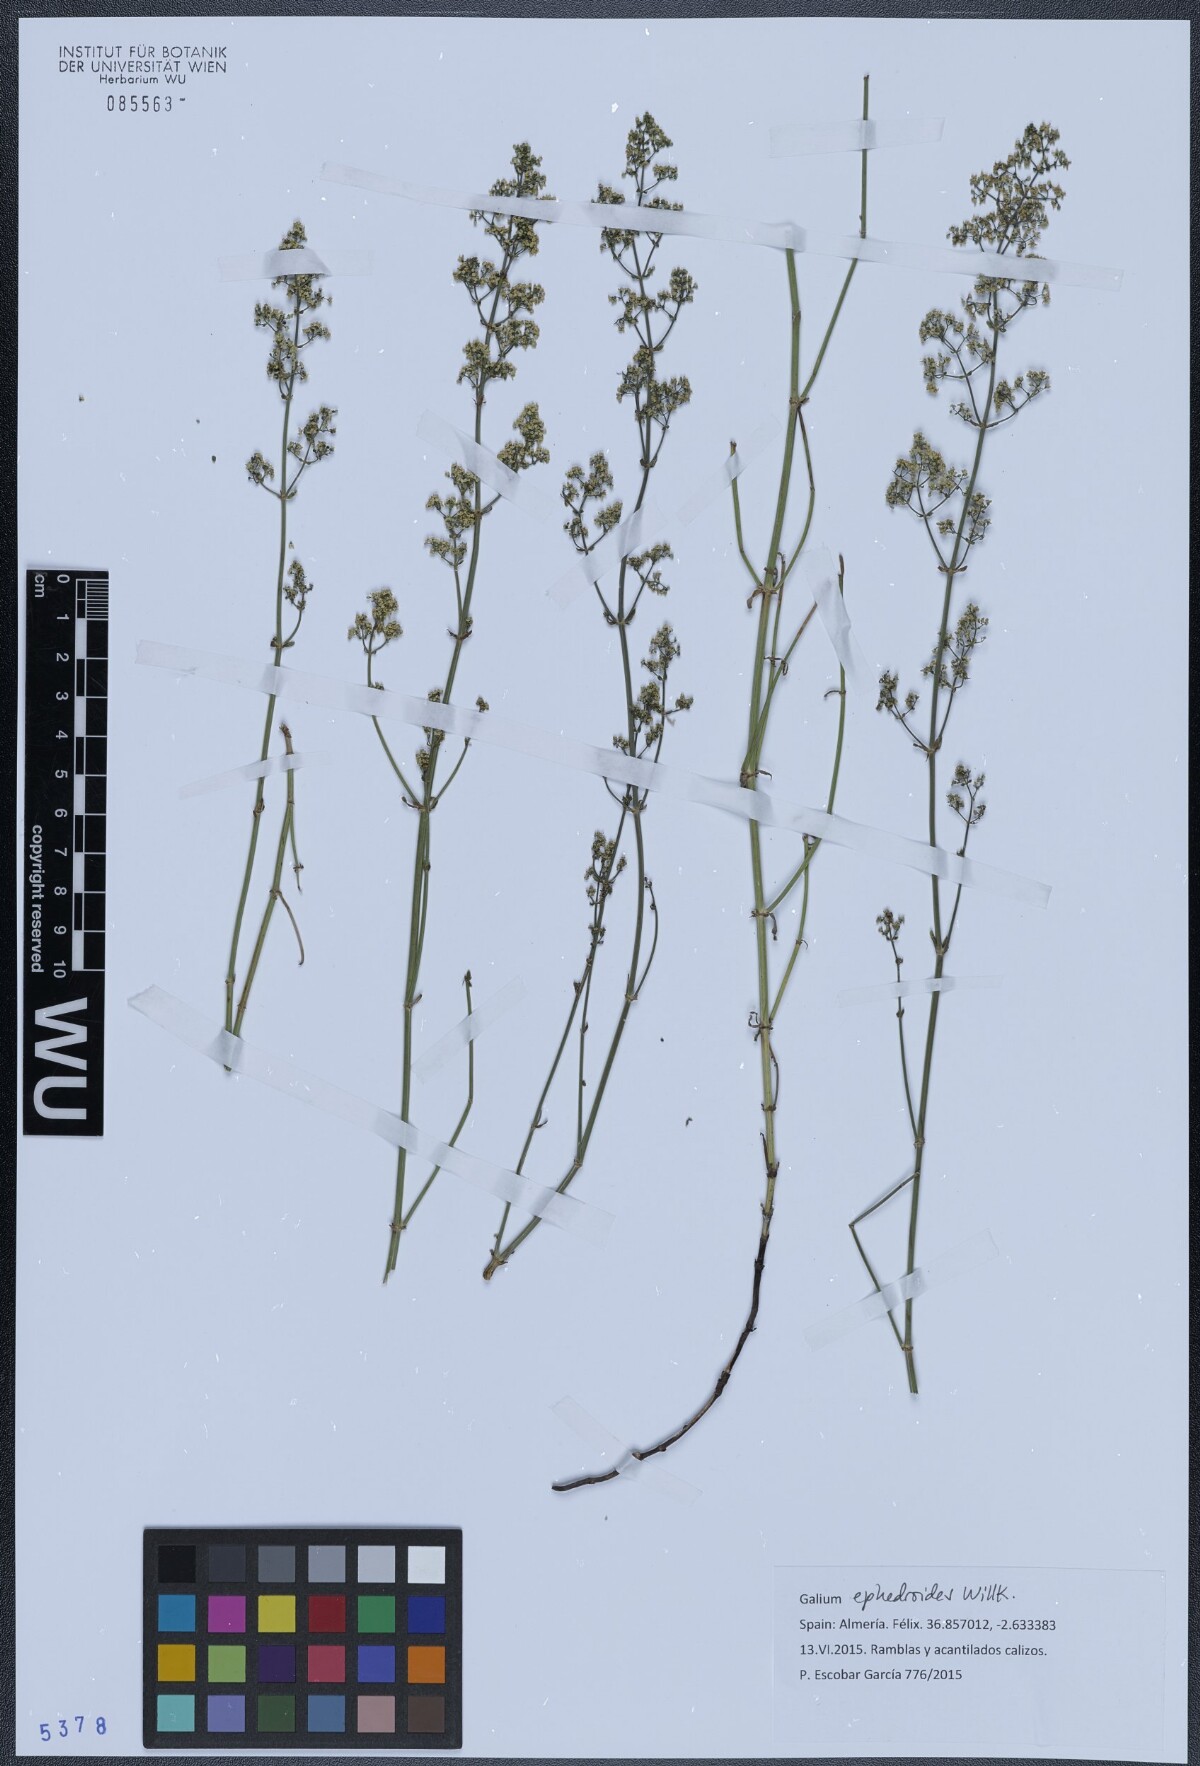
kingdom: Plantae
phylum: Tracheophyta
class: Magnoliopsida
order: Gentianales
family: Rubiaceae
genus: Galium
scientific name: Galium ephedroides
